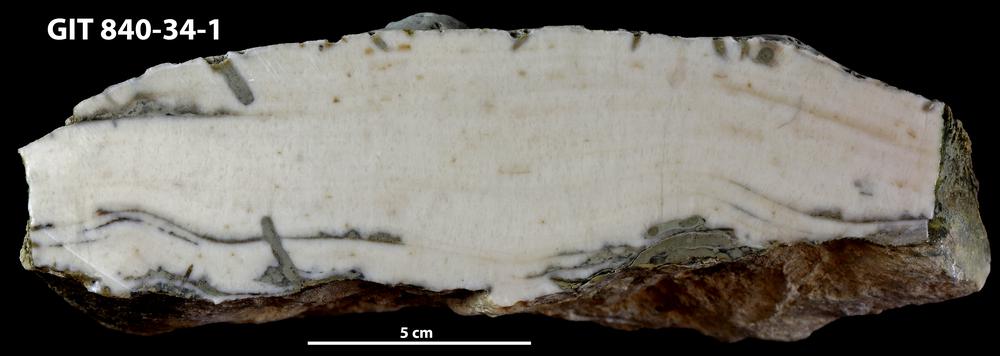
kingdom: Animalia
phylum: Sipuncula
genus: Trypanites
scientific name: Trypanites
